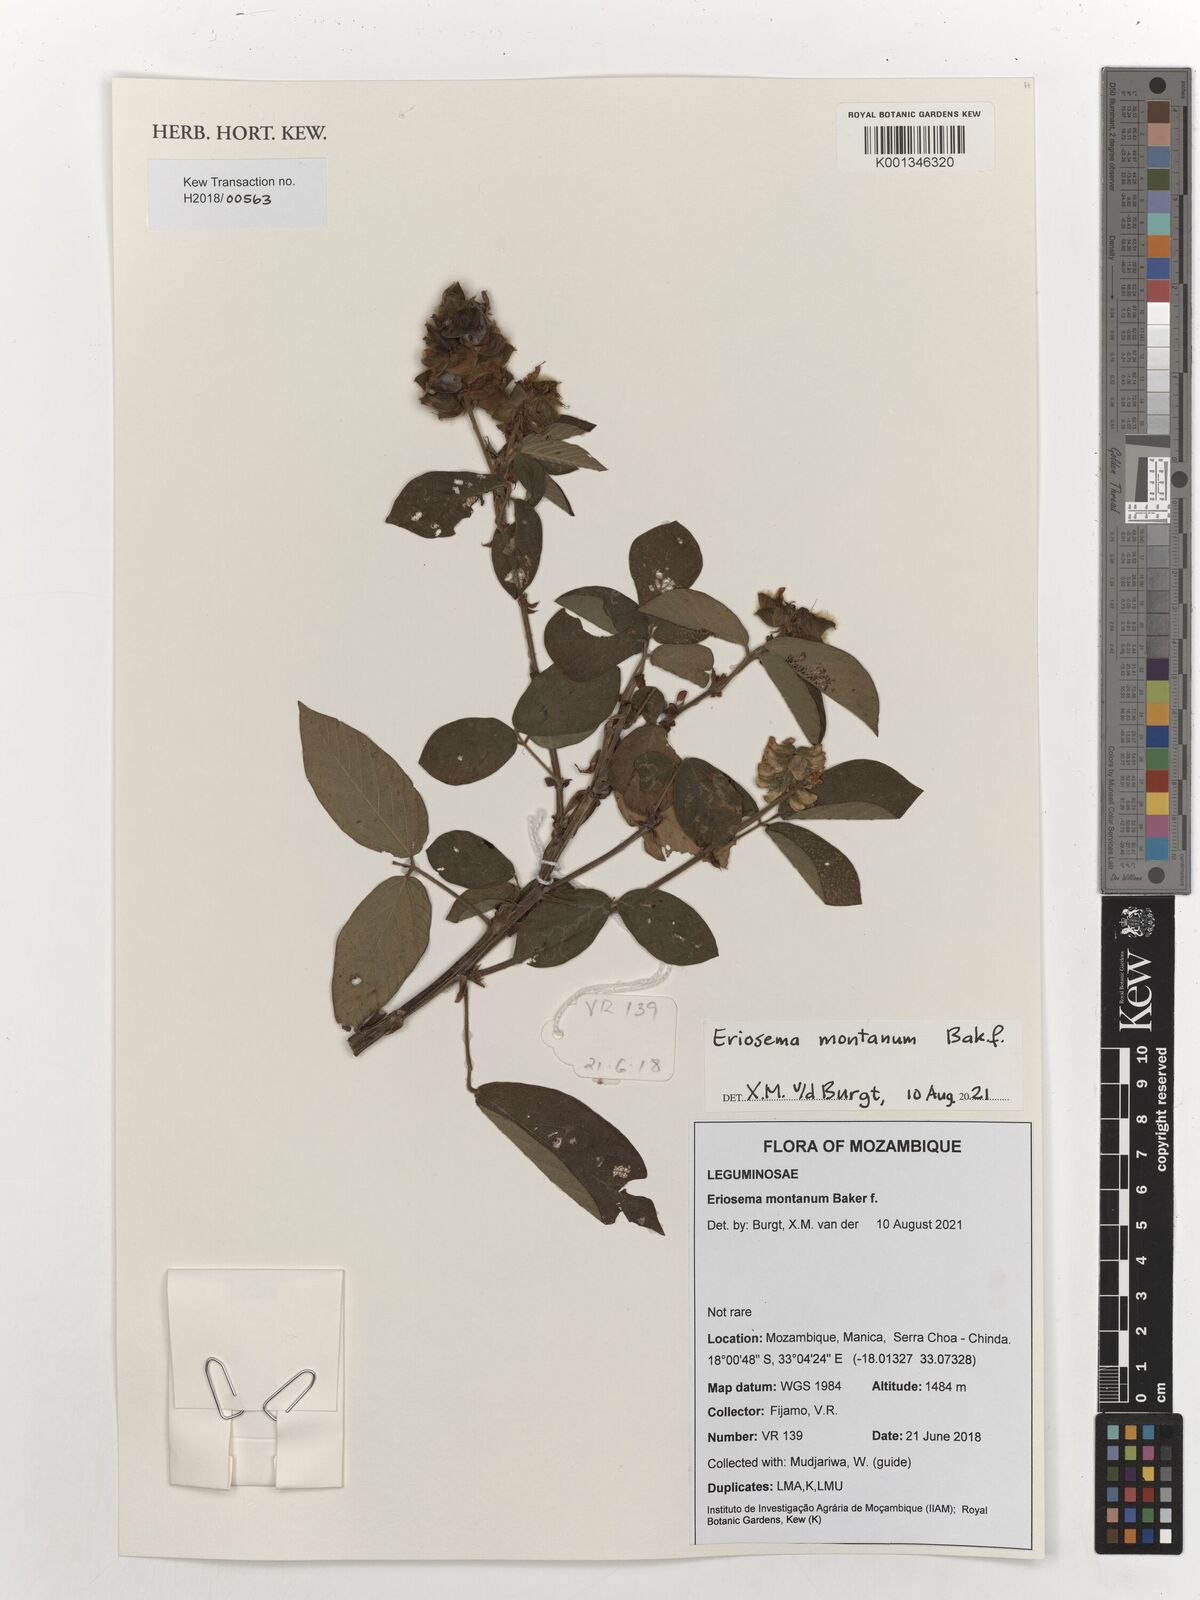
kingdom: Plantae
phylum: Tracheophyta
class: Magnoliopsida
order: Fabales
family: Fabaceae
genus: Eriosema
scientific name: Eriosema montanum
